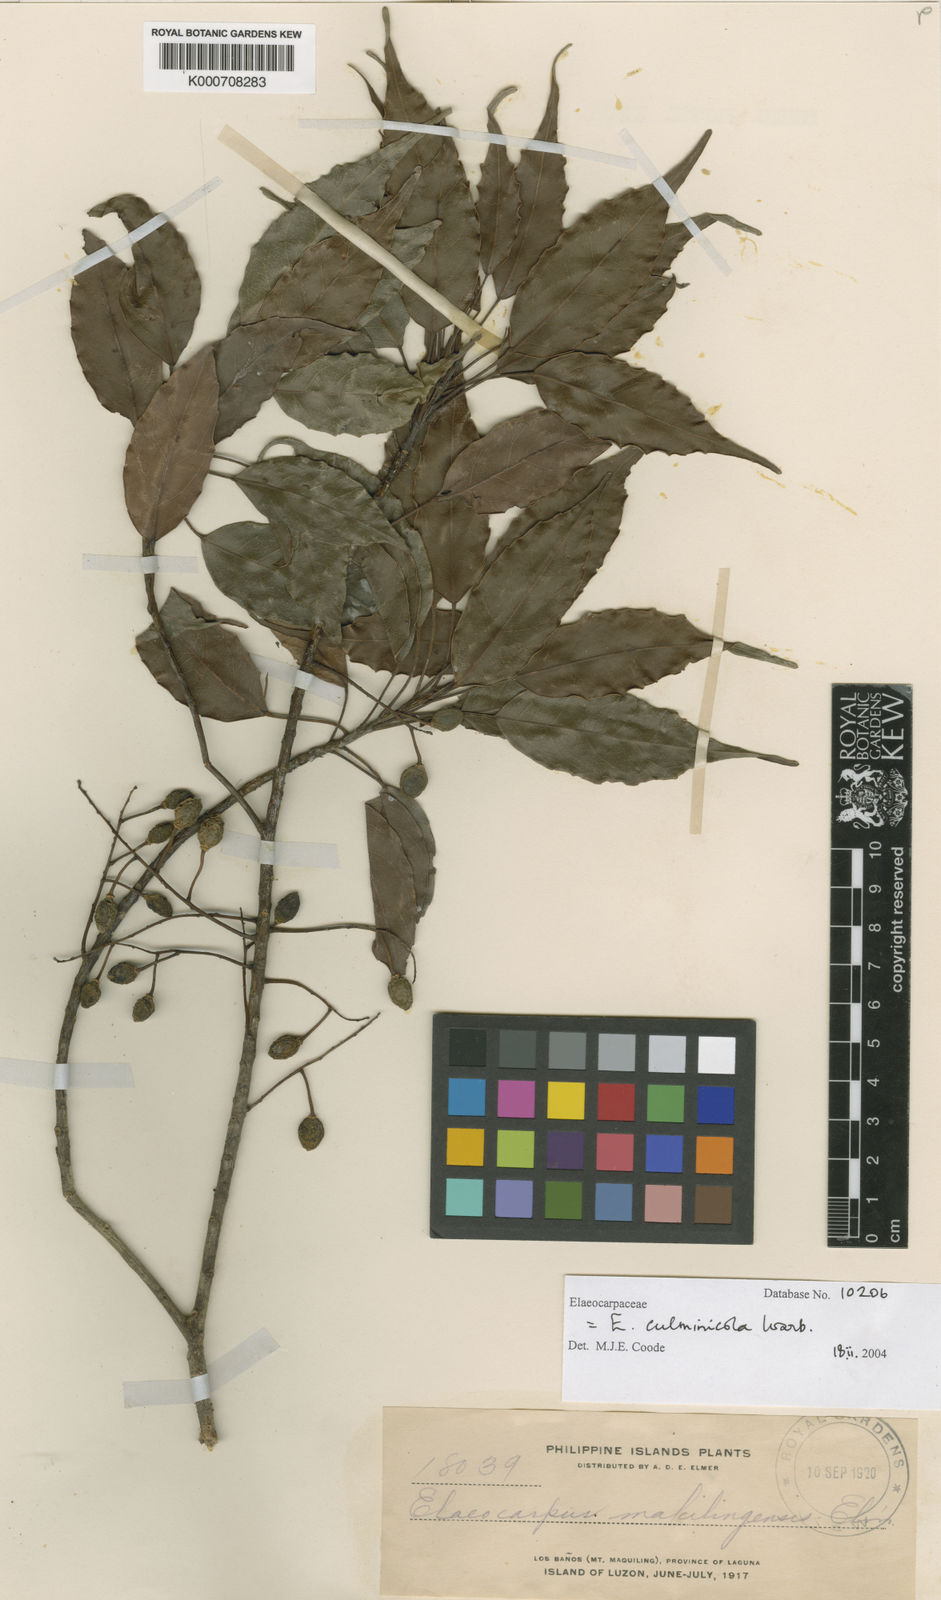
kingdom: Plantae
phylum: Tracheophyta
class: Magnoliopsida
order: Oxalidales
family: Elaeocarpaceae
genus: Elaeocarpus
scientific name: Elaeocarpus culminicola
